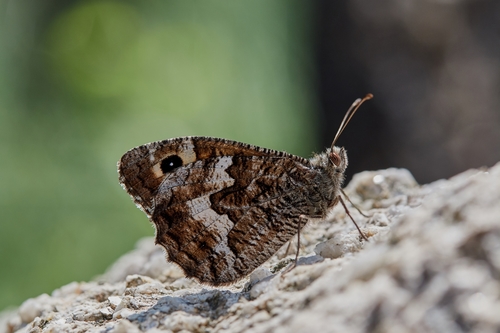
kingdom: Animalia
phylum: Arthropoda
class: Insecta
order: Lepidoptera
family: Nymphalidae
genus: Hipparchia
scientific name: Hipparchia semele
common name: Grayling
